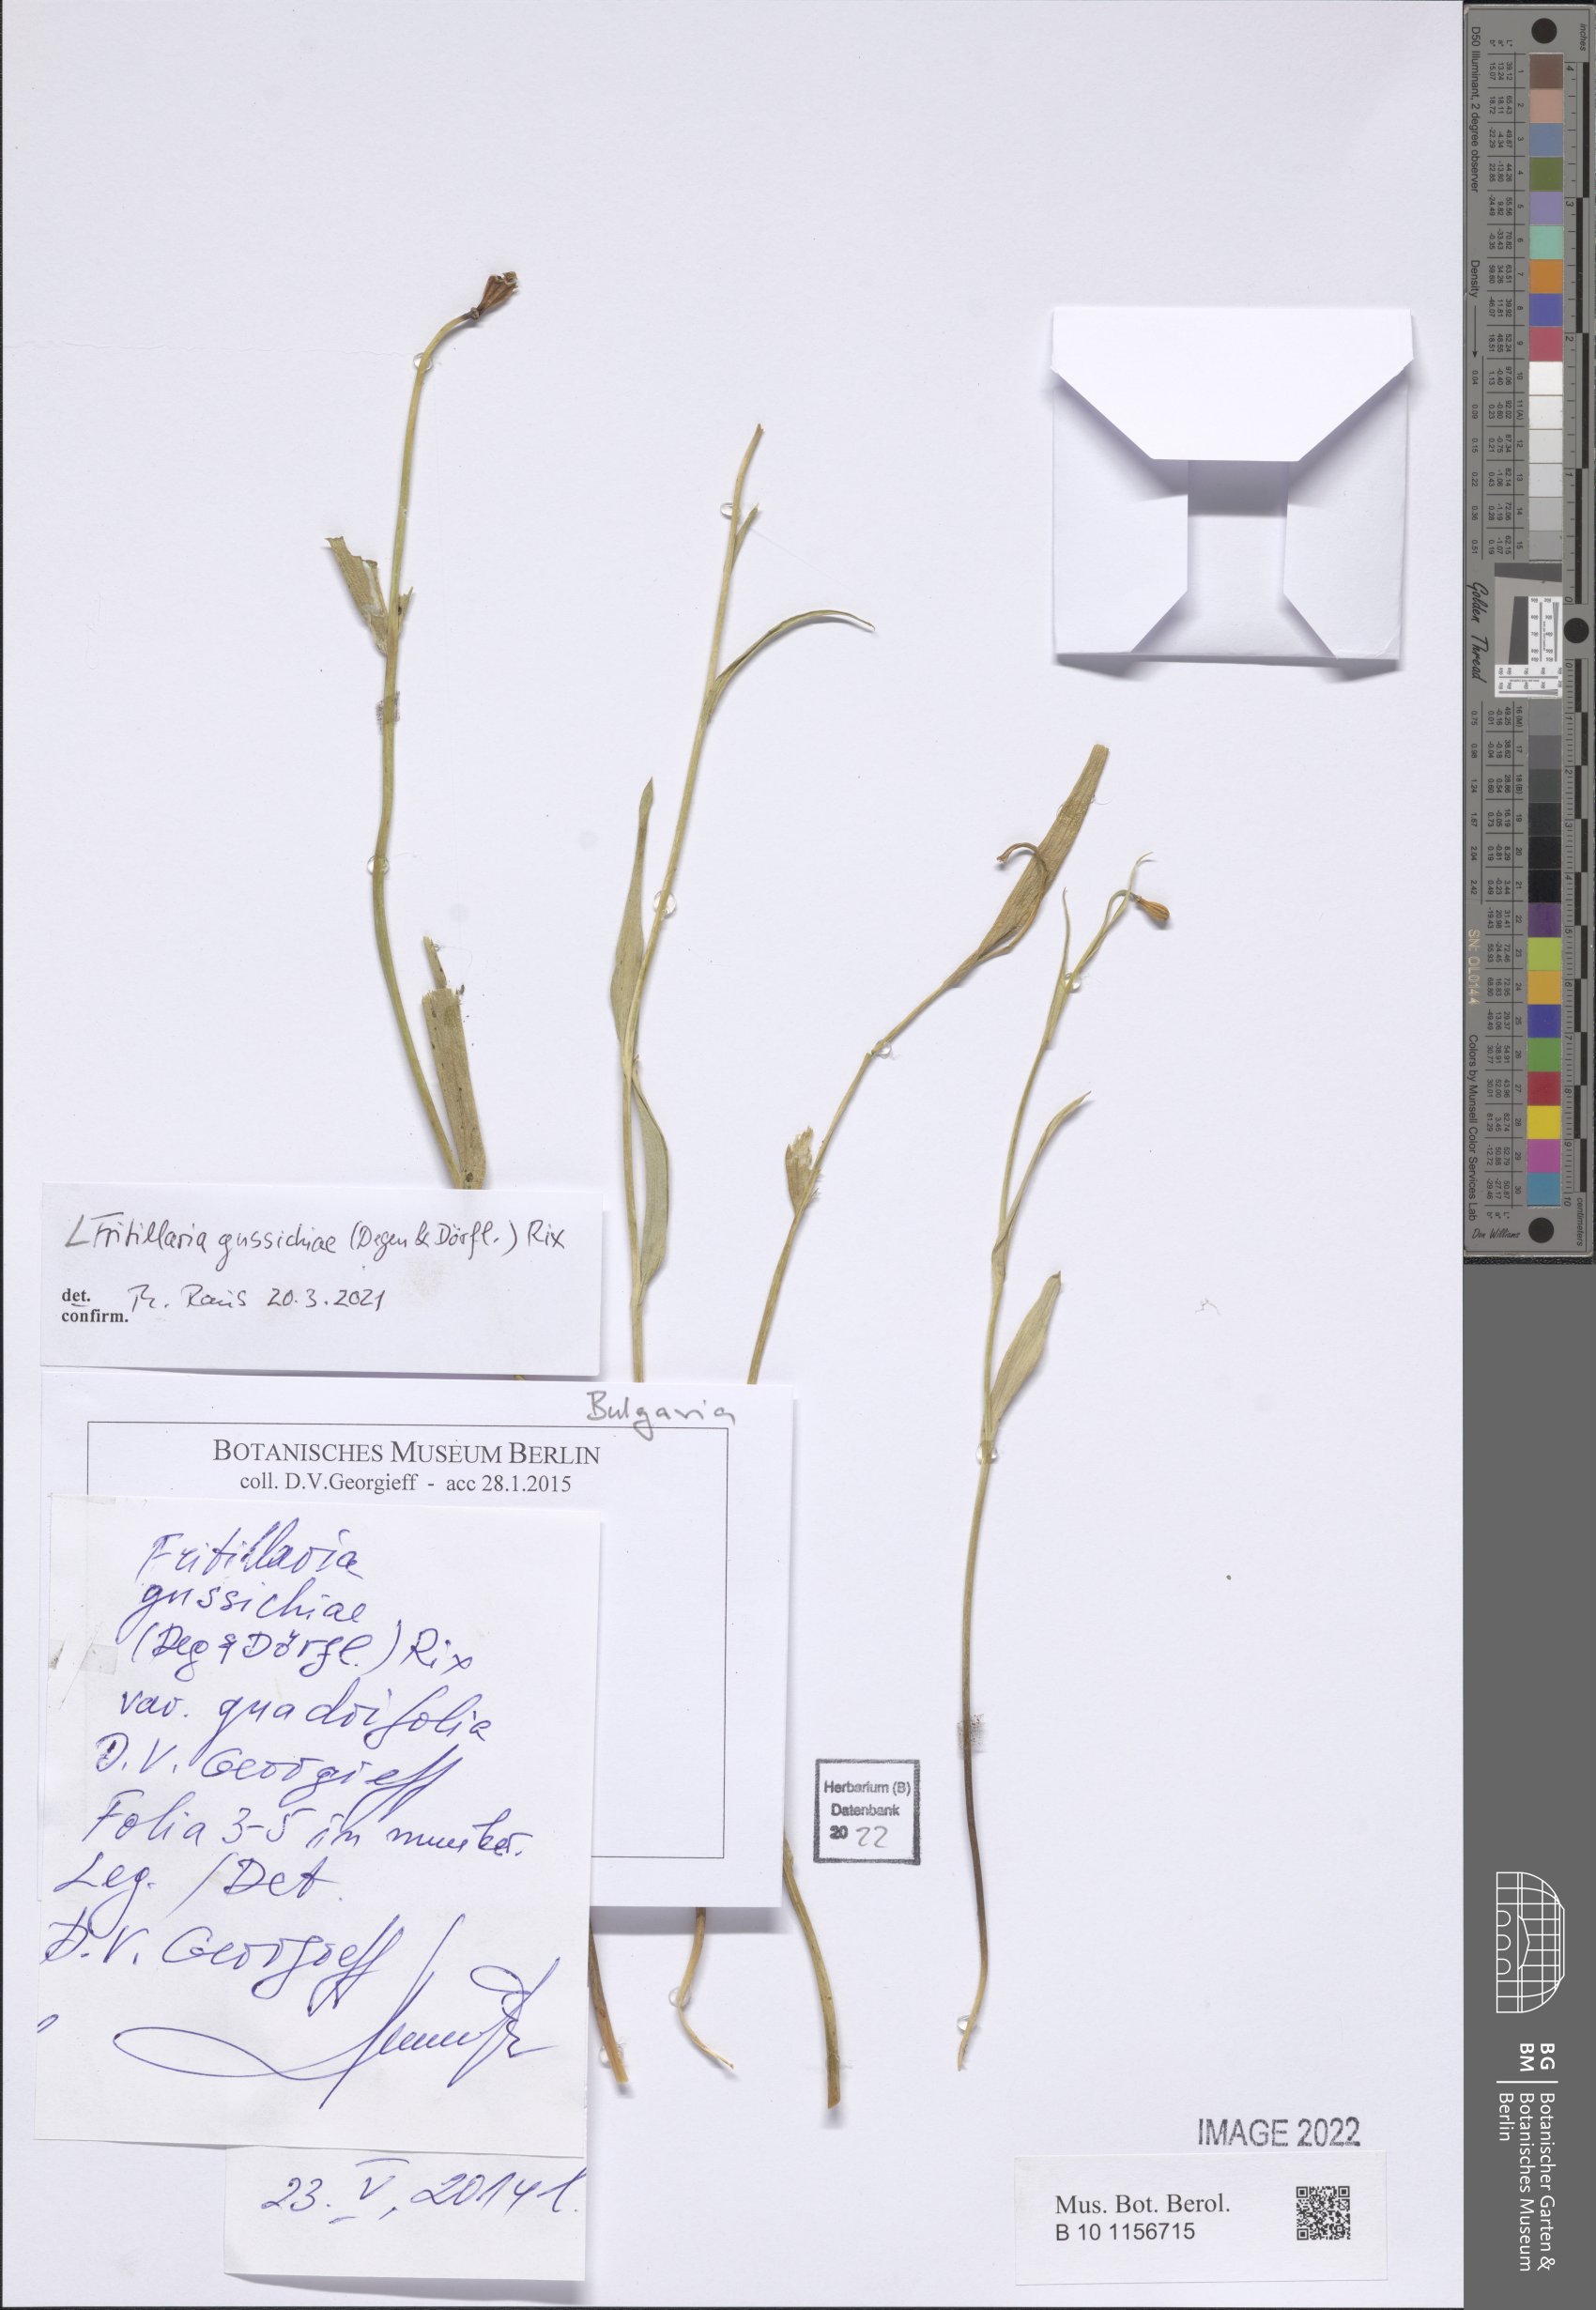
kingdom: Plantae
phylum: Tracheophyta
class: Liliopsida
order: Liliales
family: Liliaceae
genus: Fritillaria
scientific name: Fritillaria gussichiae
